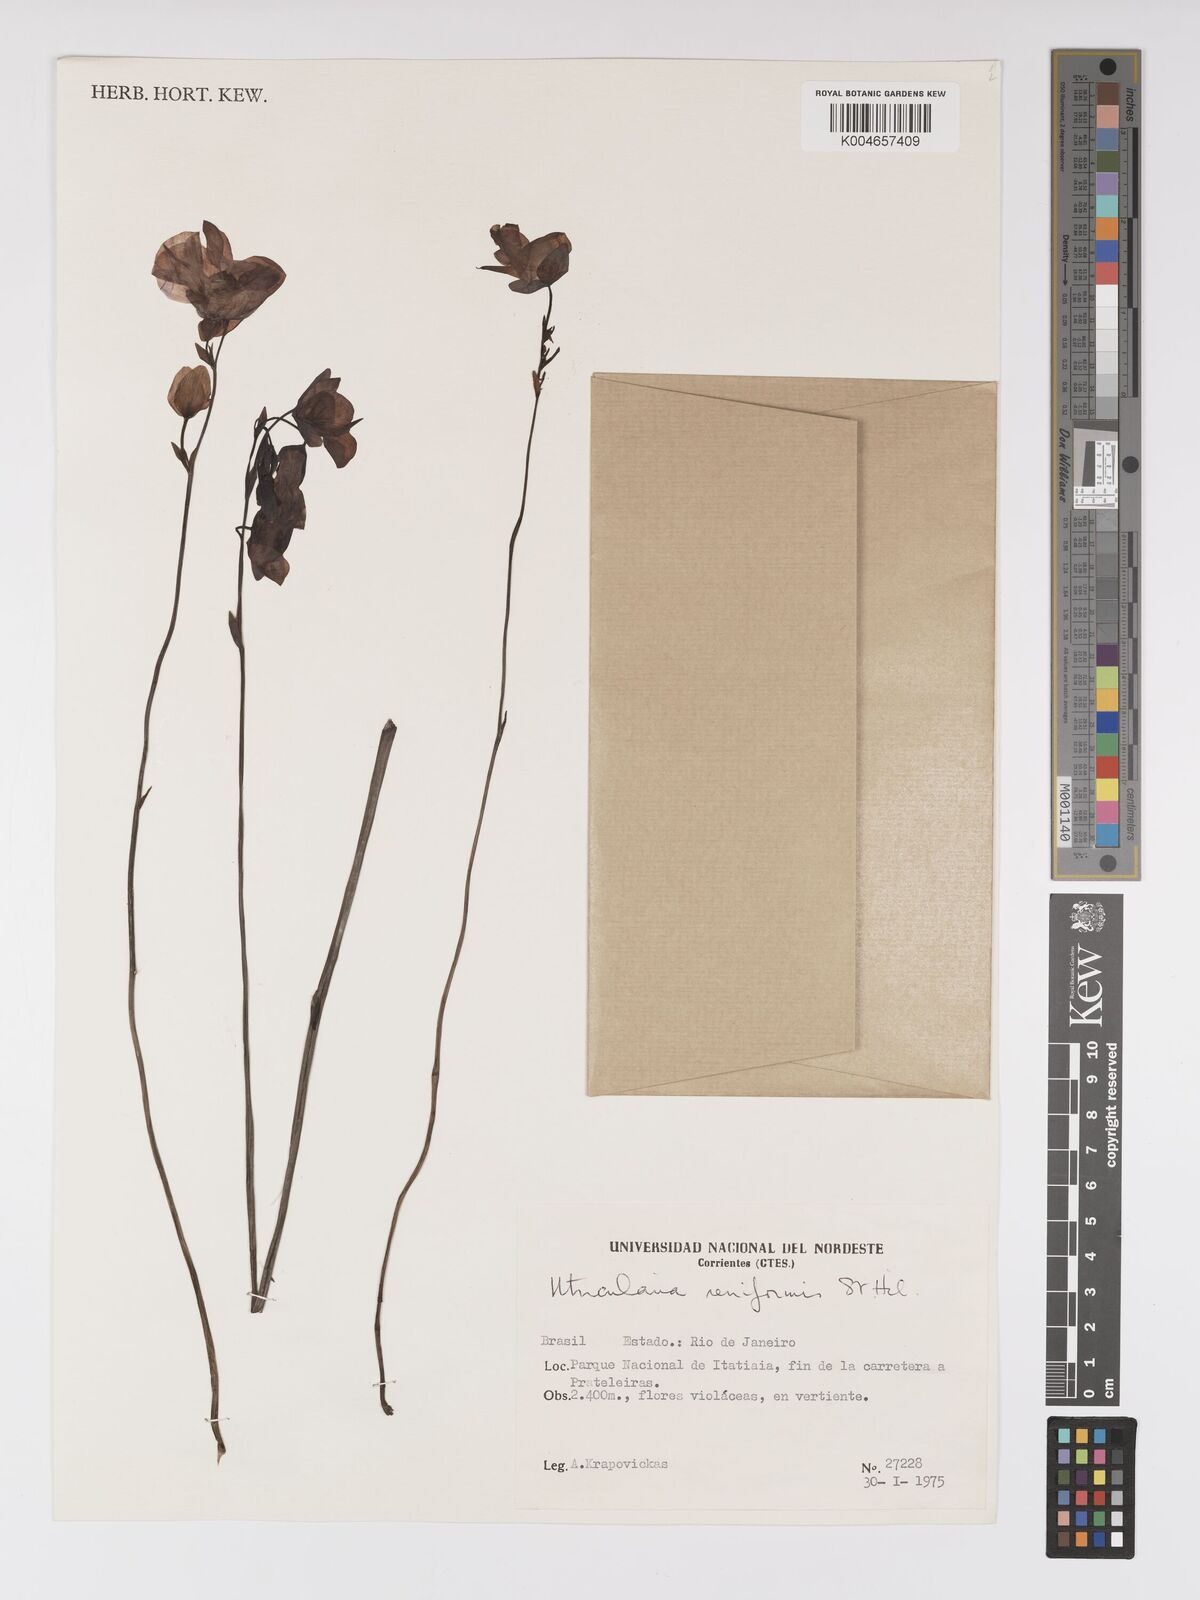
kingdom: Plantae
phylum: Tracheophyta
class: Magnoliopsida
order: Lamiales
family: Lentibulariaceae
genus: Utricularia
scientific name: Utricularia reniformis
